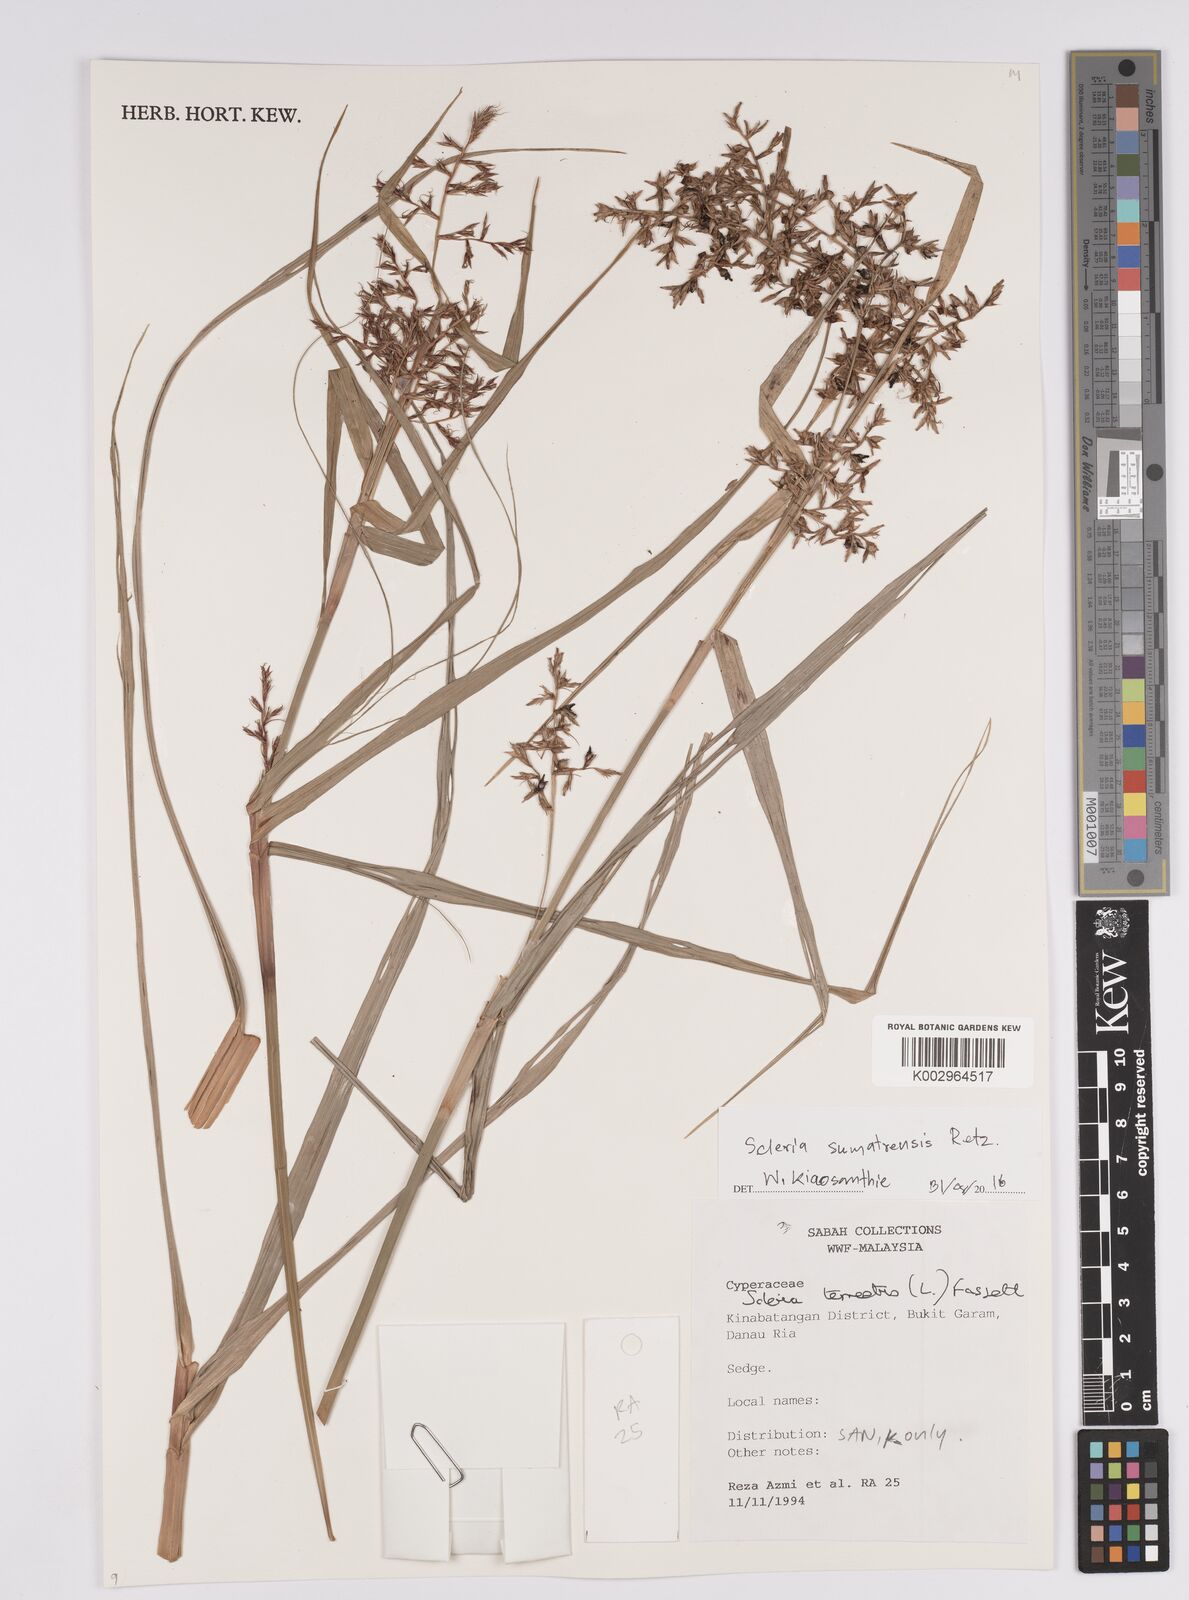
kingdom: Plantae
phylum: Tracheophyta
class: Liliopsida
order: Poales
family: Cyperaceae
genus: Scleria
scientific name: Scleria sumatrensis
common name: Sumatran scleria
